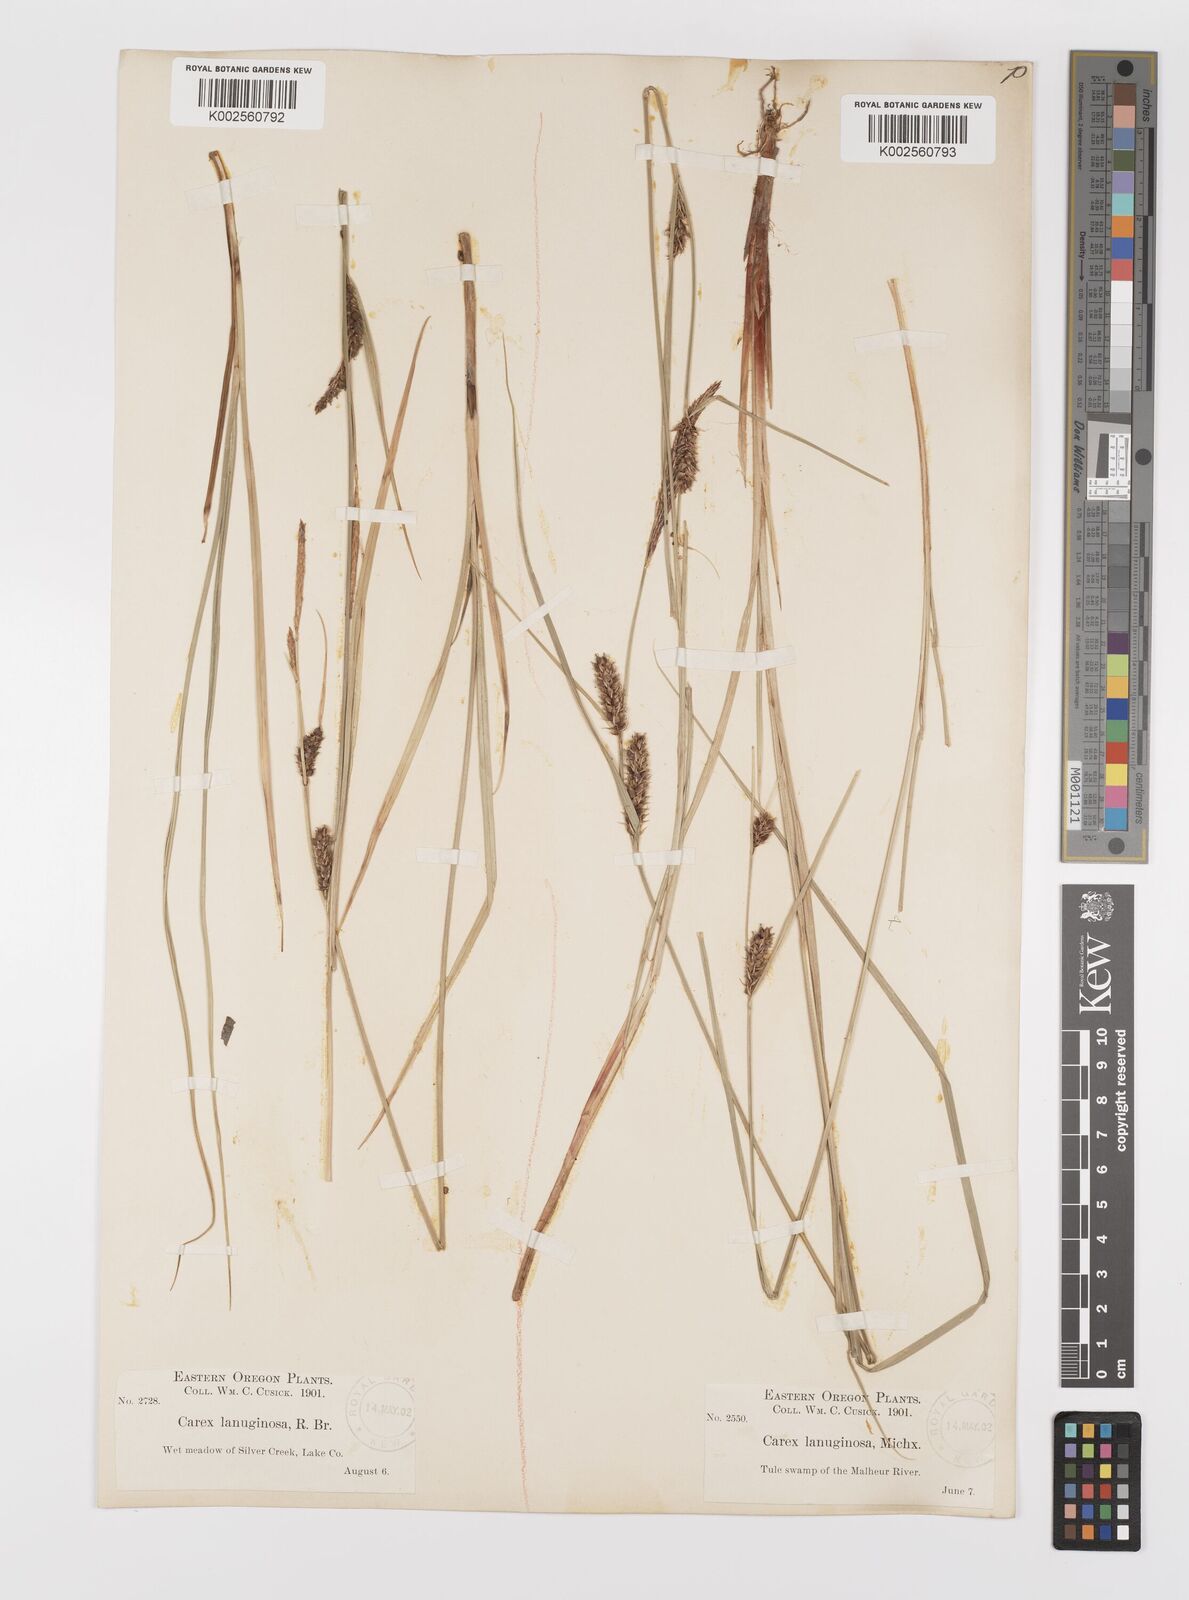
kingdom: Plantae
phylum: Tracheophyta
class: Liliopsida
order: Poales
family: Cyperaceae
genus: Carex
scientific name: Carex lasiocarpa
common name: Slender sedge
